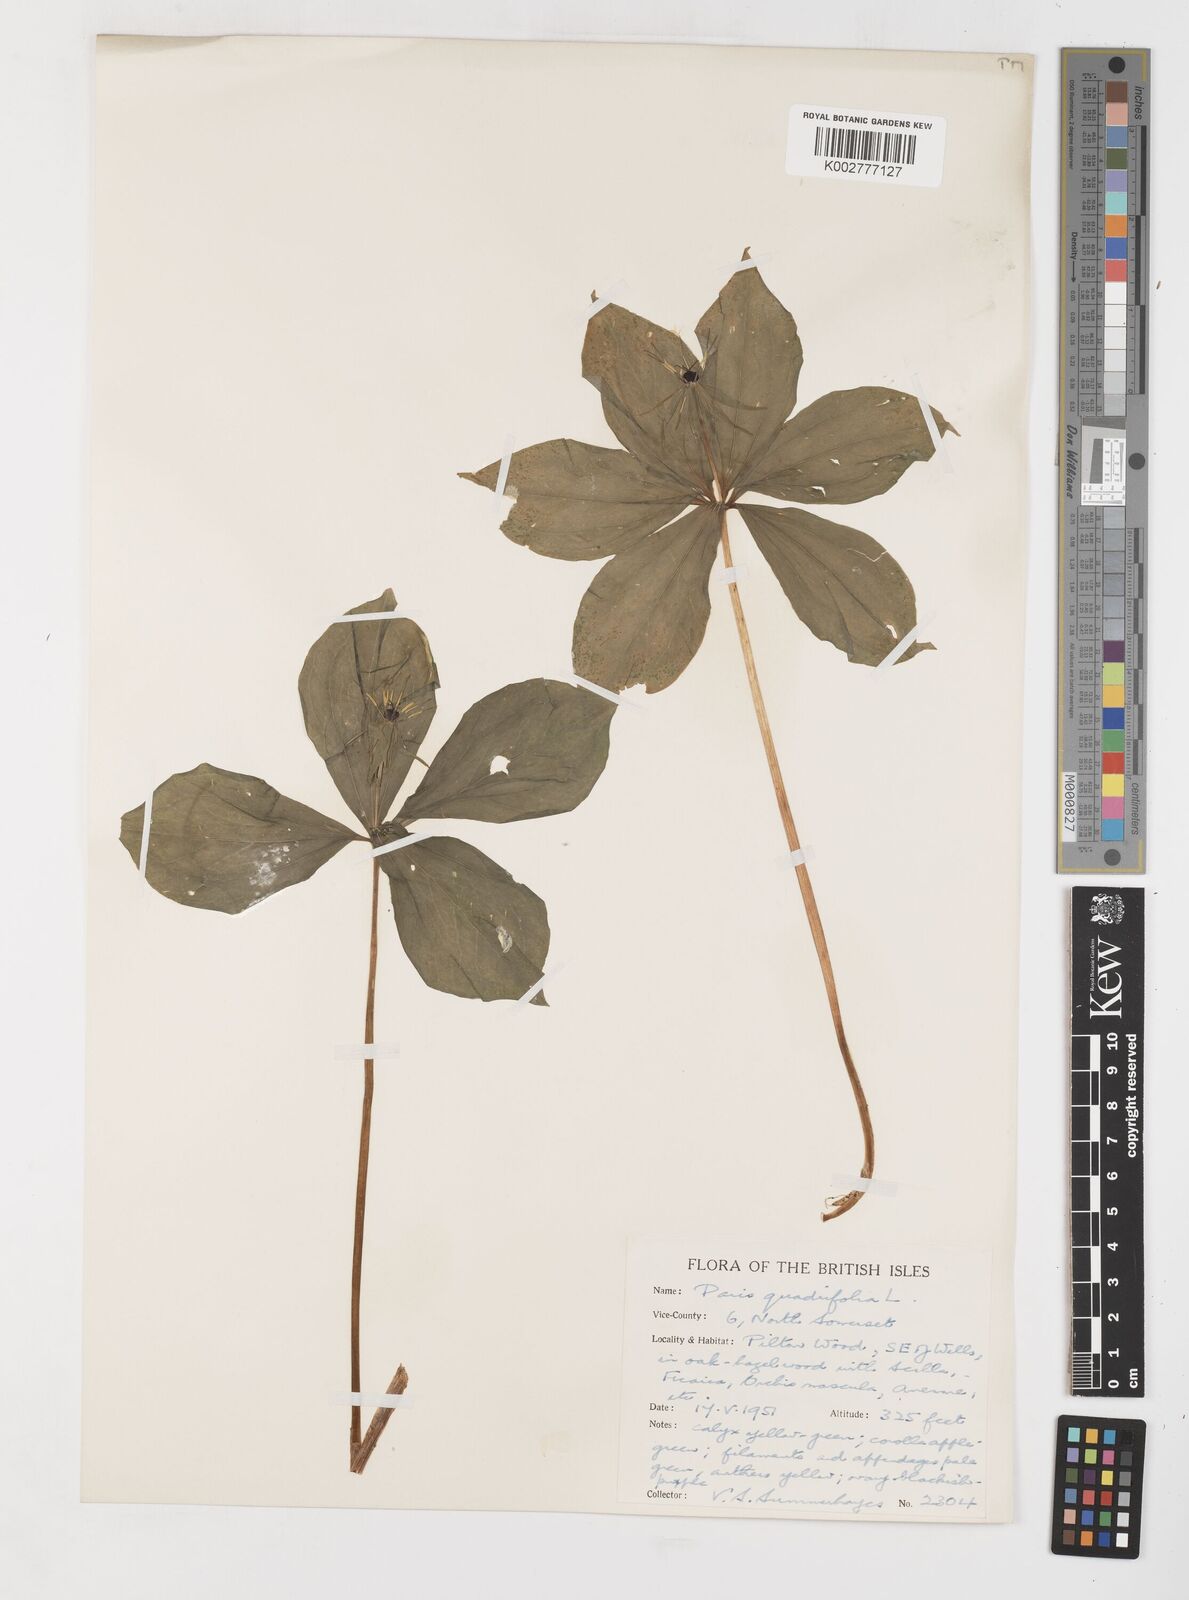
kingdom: Plantae
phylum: Tracheophyta
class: Liliopsida
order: Liliales
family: Melanthiaceae
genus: Paris
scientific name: Paris quadrifolia
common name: Herb-paris
